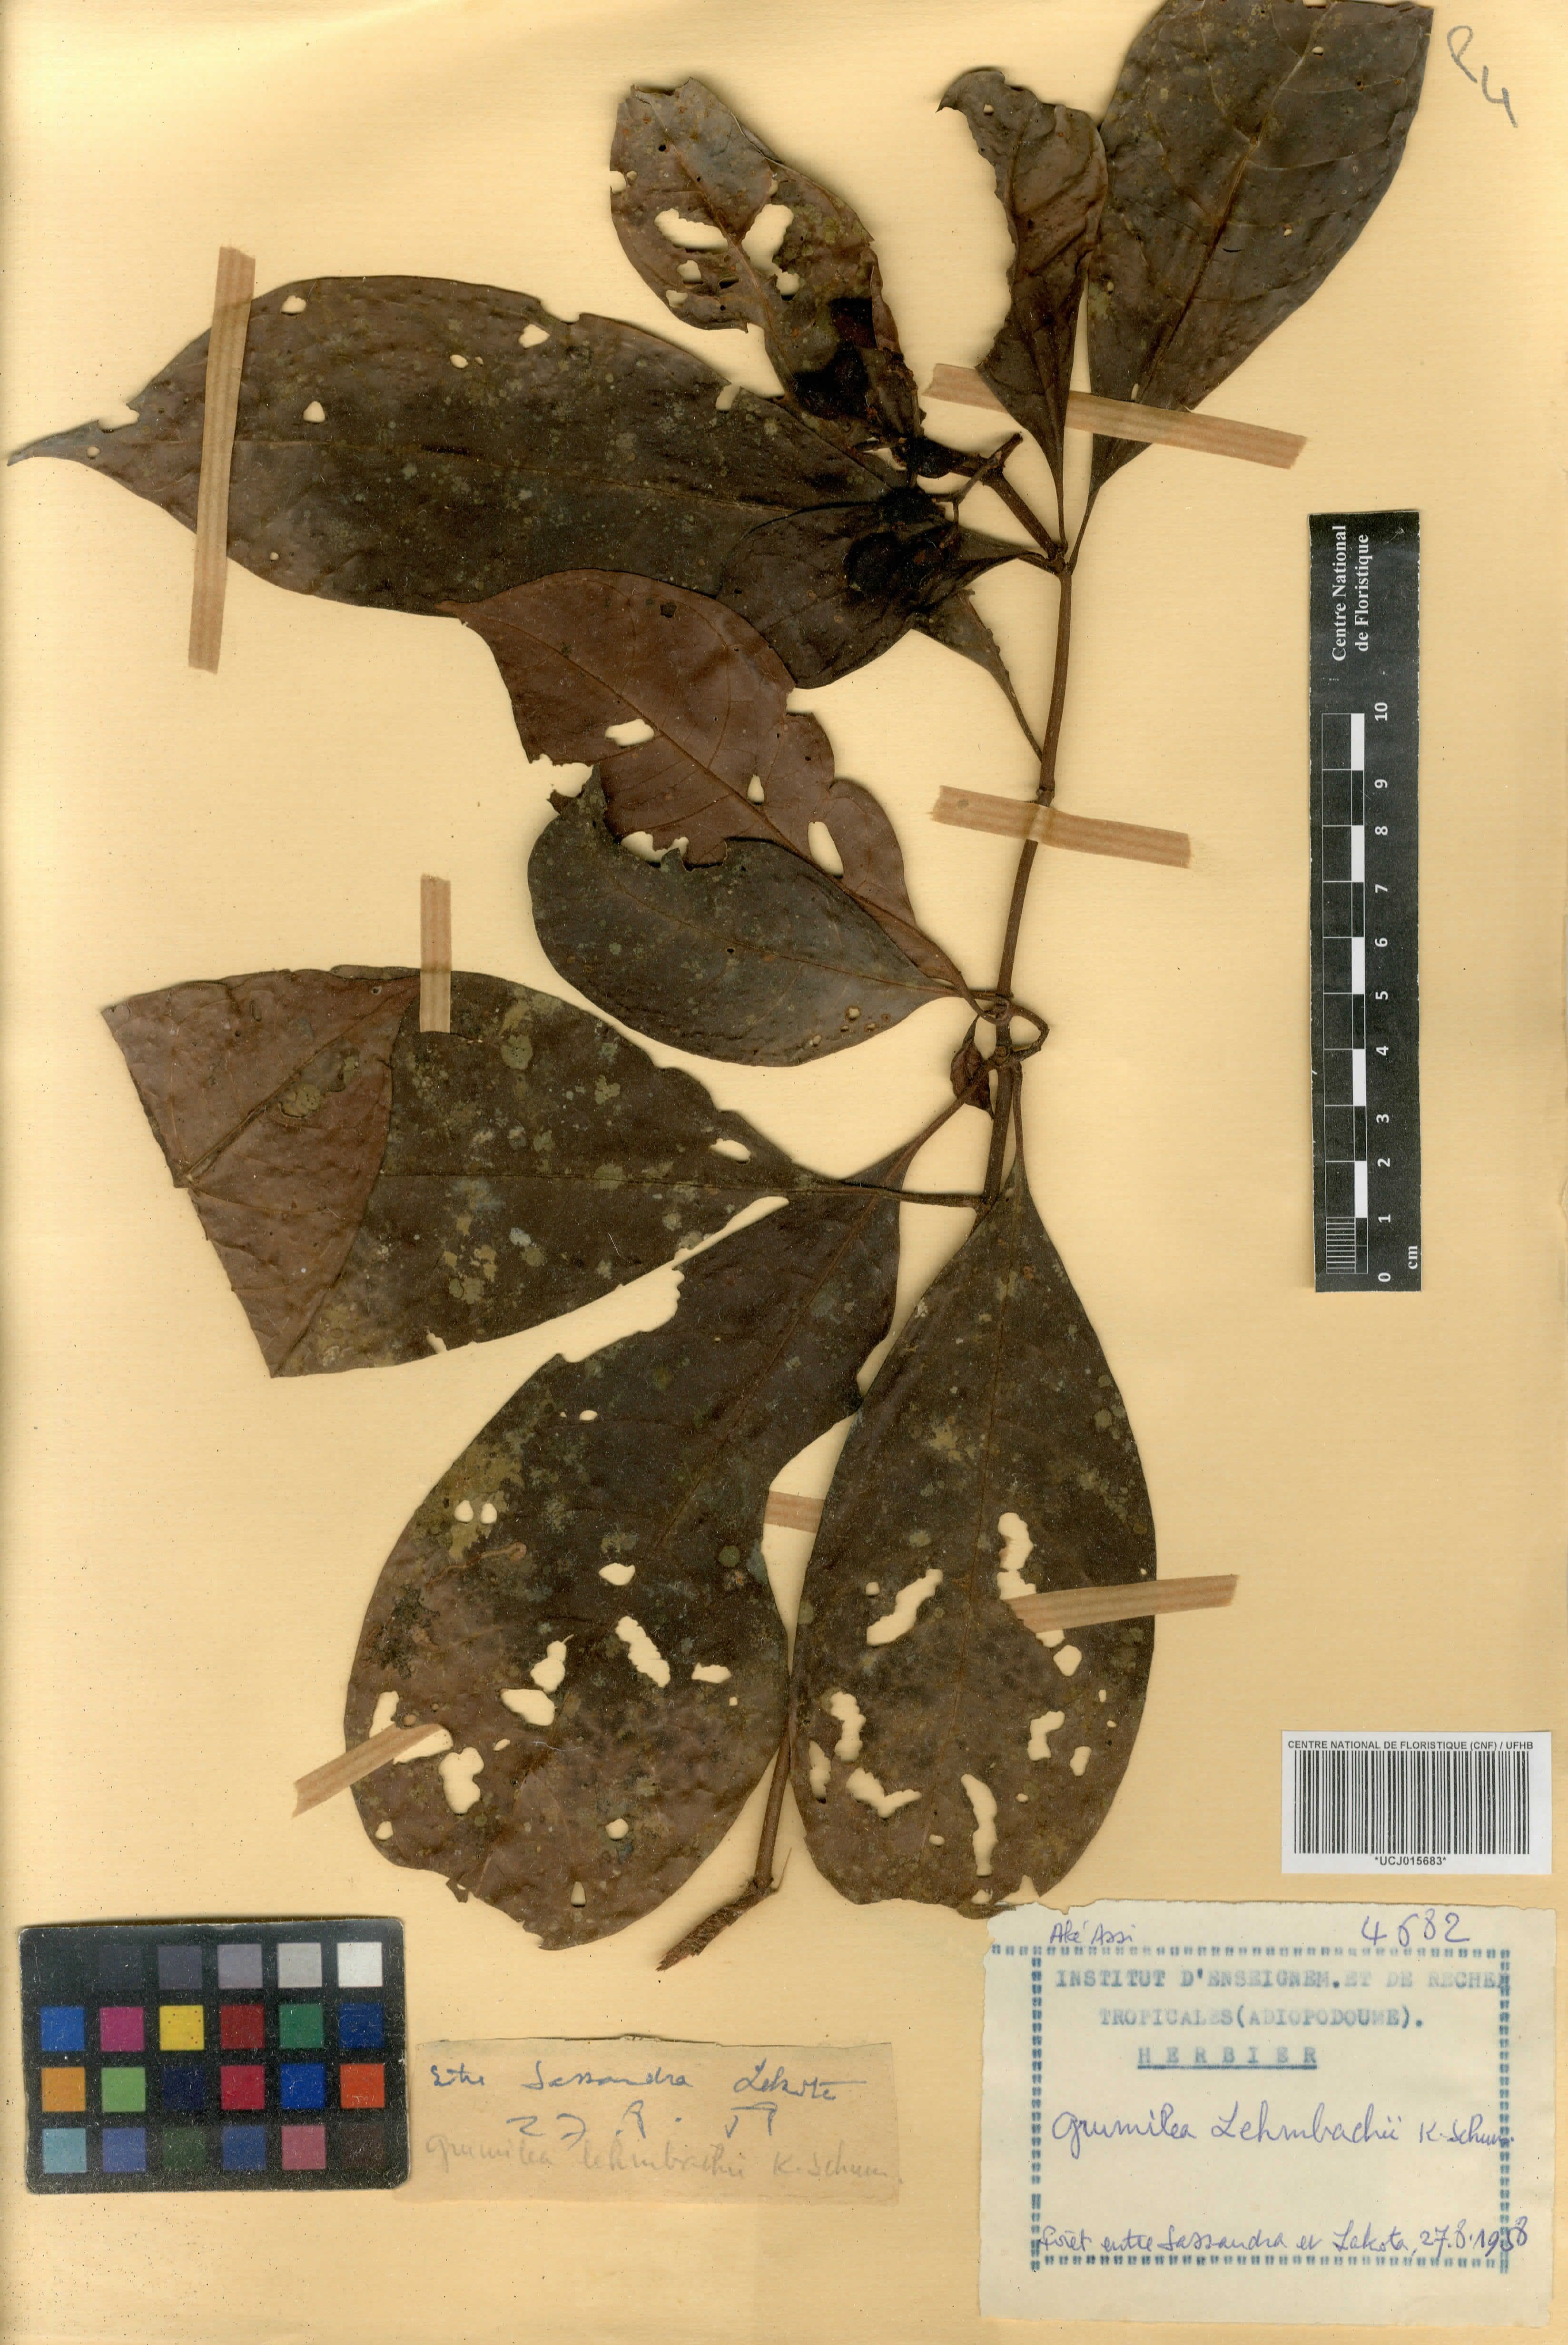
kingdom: Plantae
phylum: Tracheophyta
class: Magnoliopsida
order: Gentianales
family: Rubiaceae
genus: Psychotria
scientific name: Psychotria gabonica
